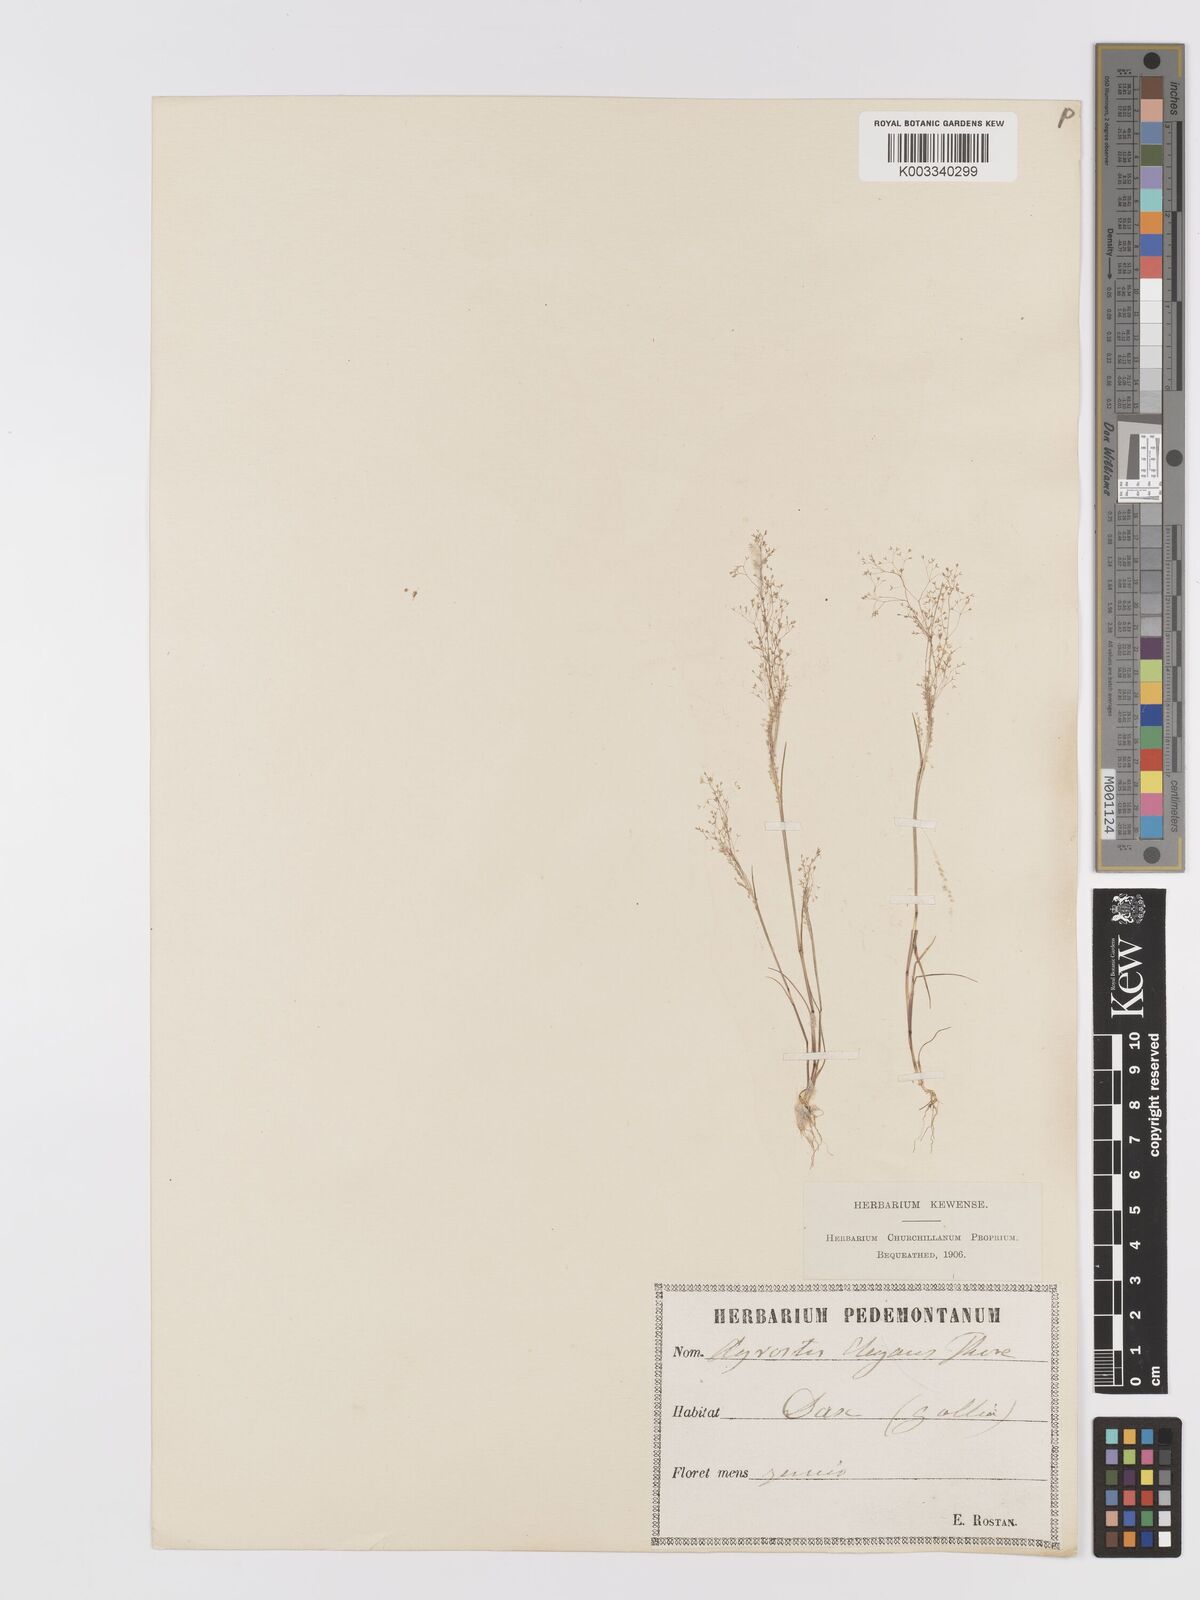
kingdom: Plantae
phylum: Tracheophyta
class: Liliopsida
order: Poales
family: Poaceae
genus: Agrostis
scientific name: Agrostis tenerrima
